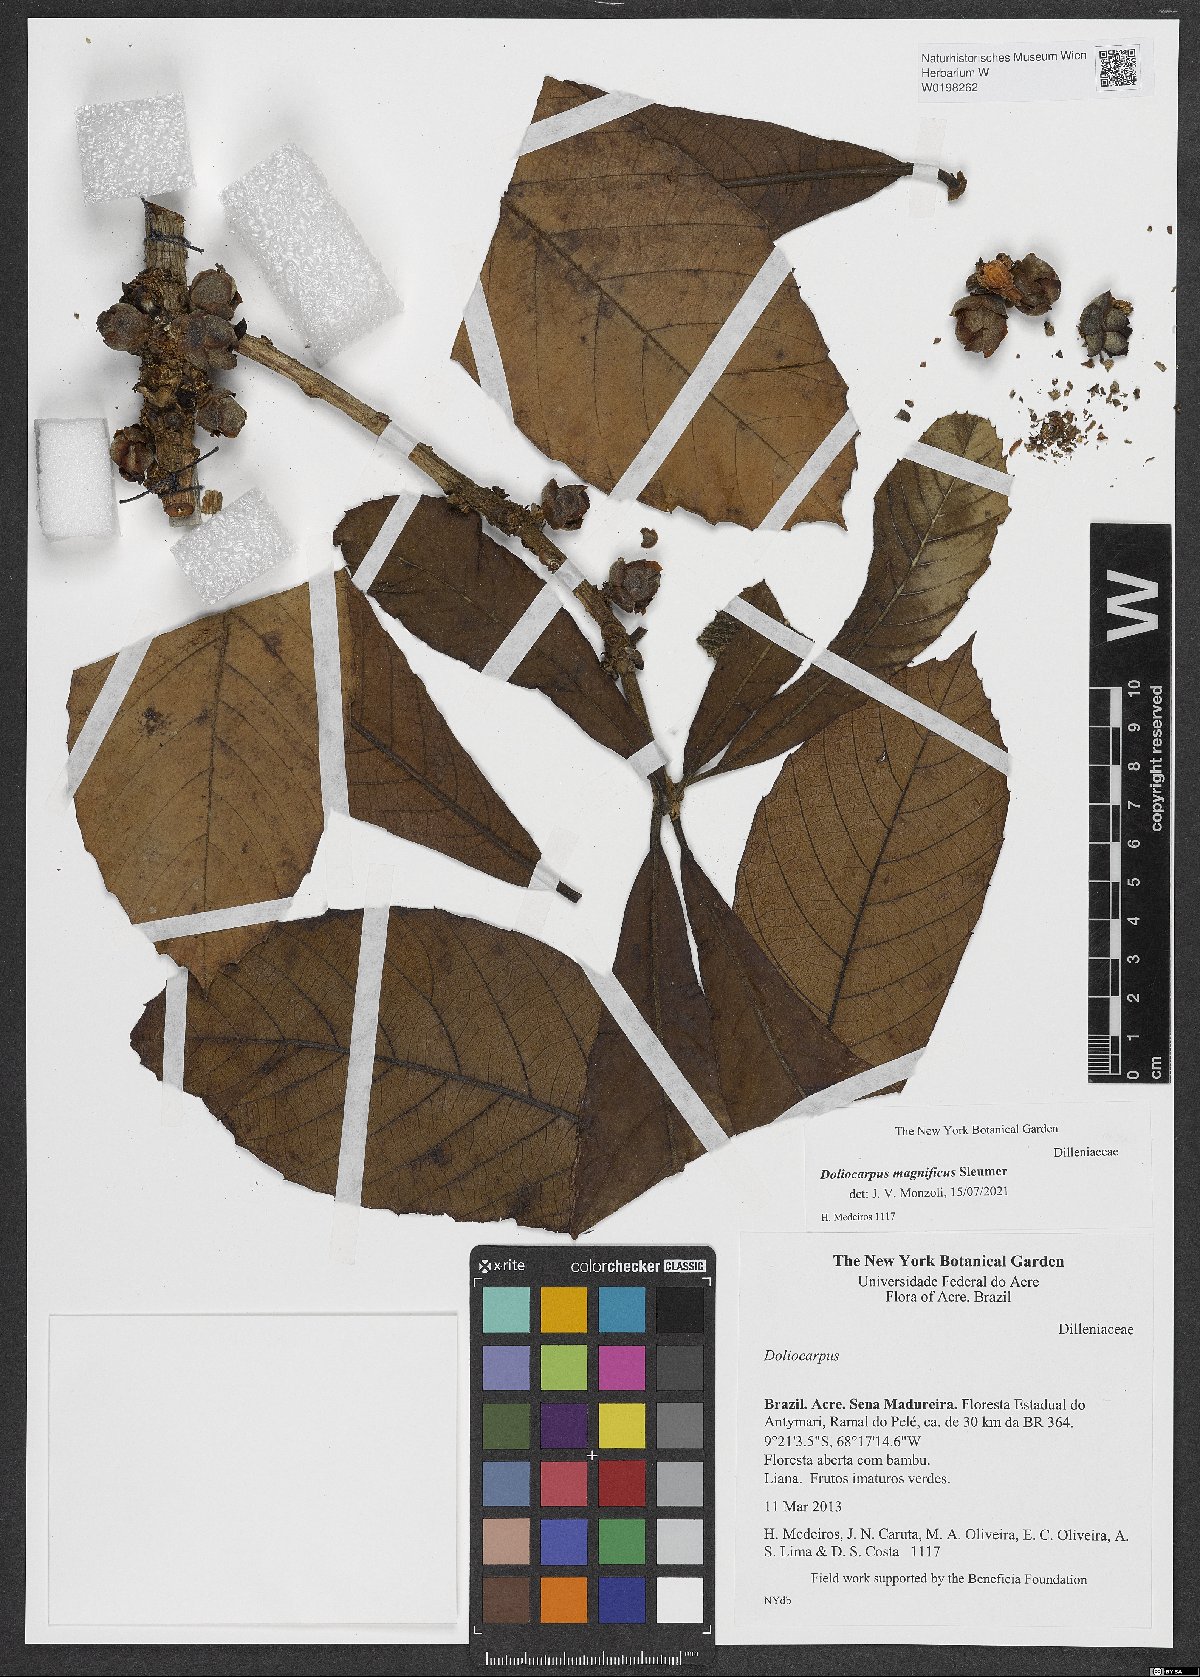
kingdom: Plantae
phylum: Tracheophyta
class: Magnoliopsida
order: Dilleniales
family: Dilleniaceae
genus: Doliocarpus
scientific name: Doliocarpus magnificus
